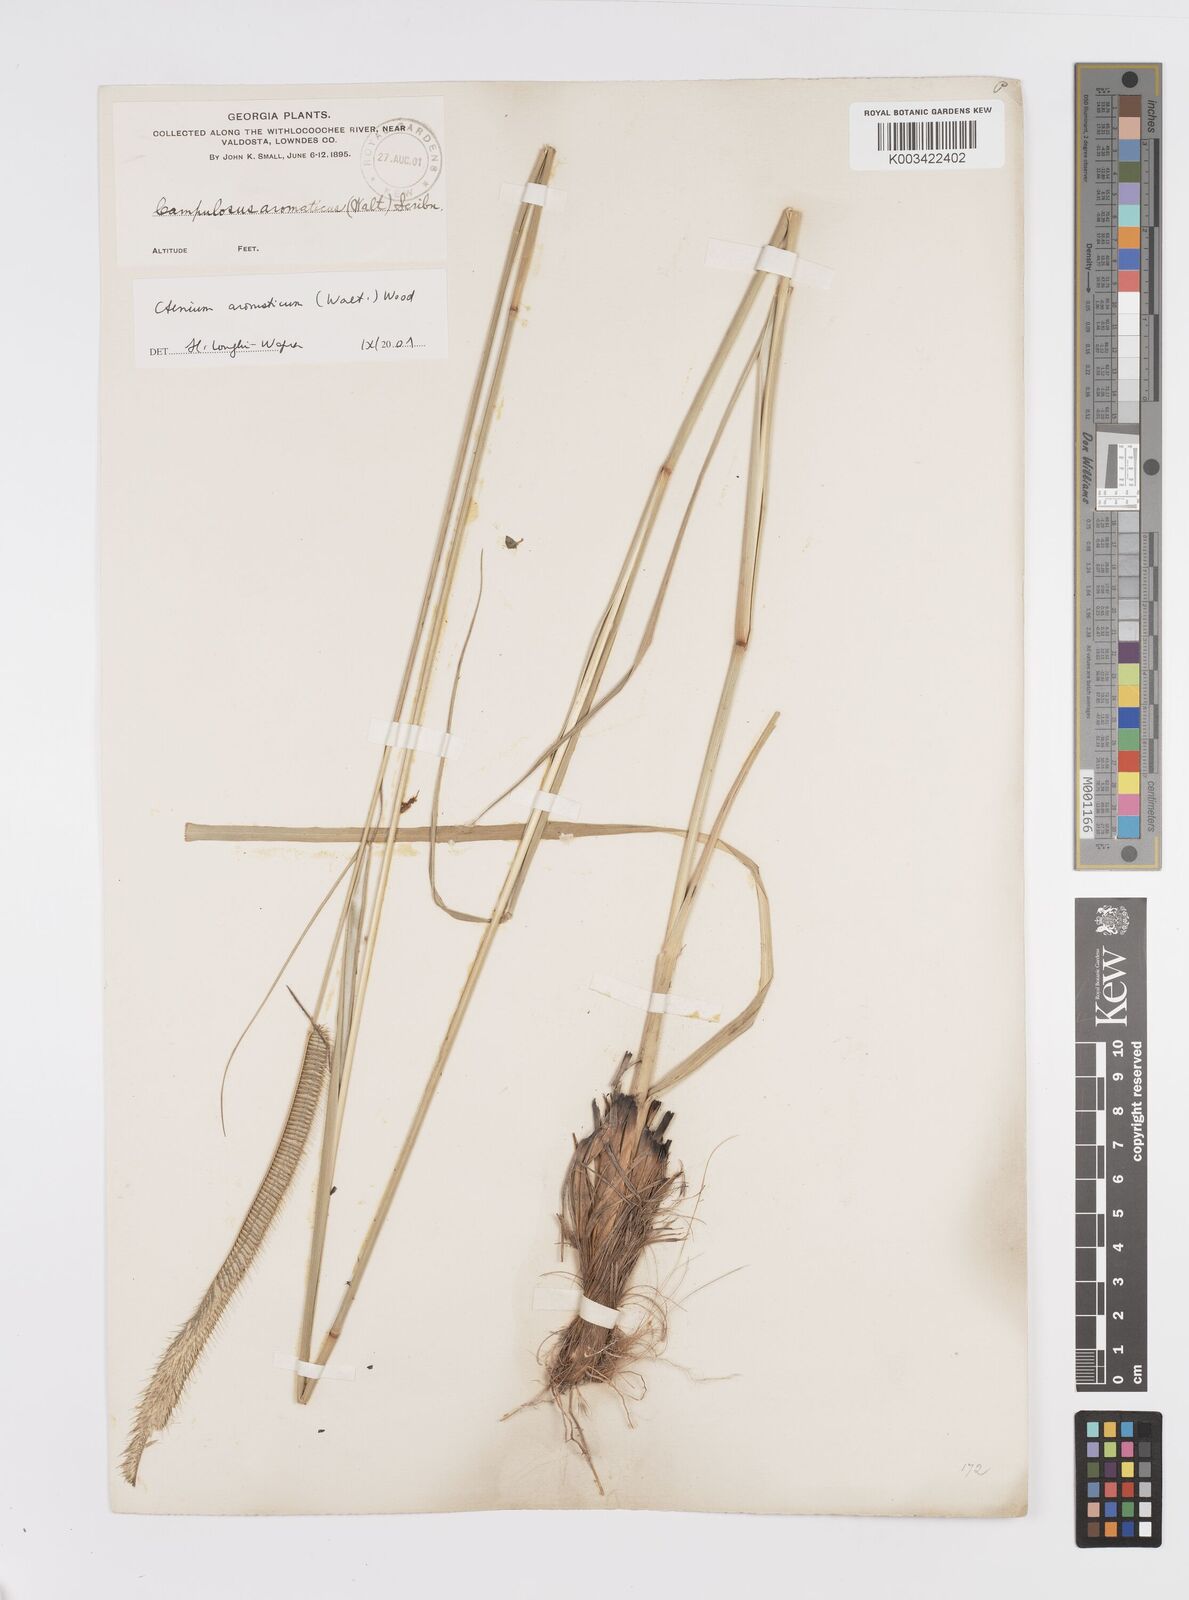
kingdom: Plantae
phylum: Tracheophyta
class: Liliopsida
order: Poales
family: Poaceae
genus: Ctenium
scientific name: Ctenium aromaticum
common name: Toothache grass
